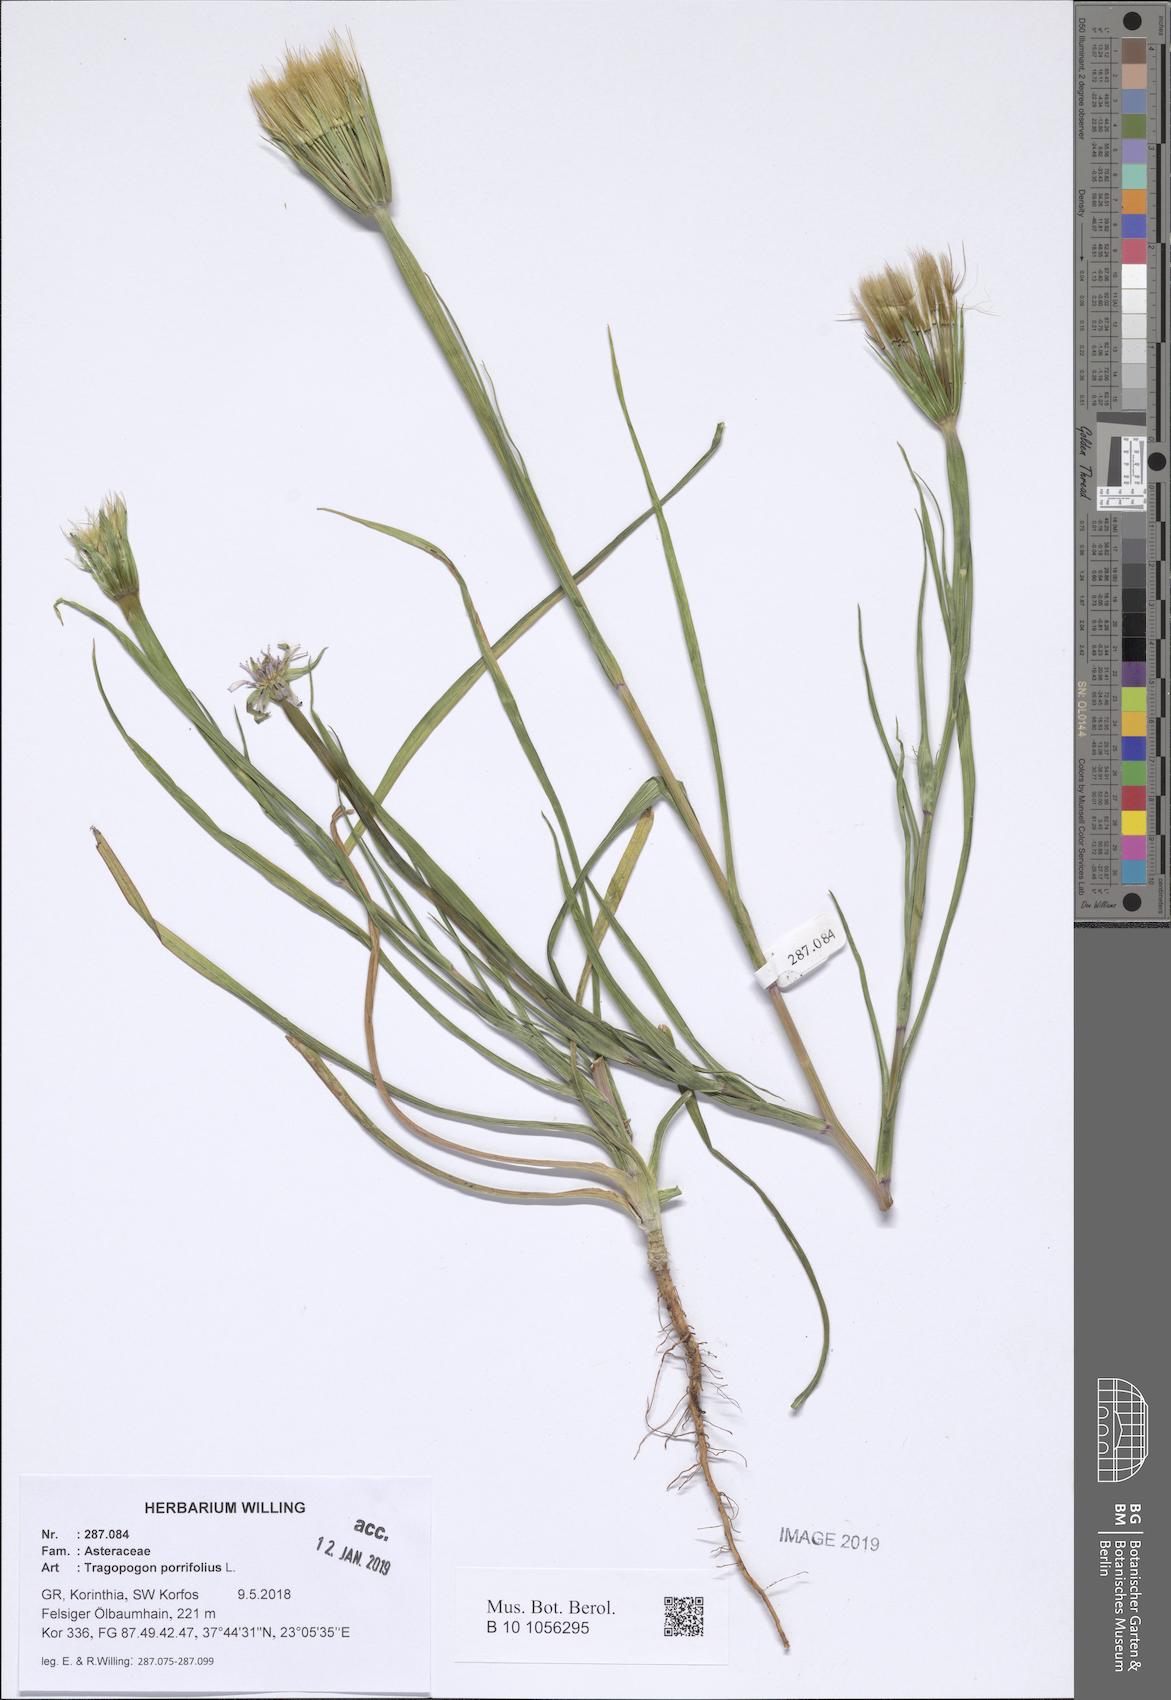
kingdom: Plantae
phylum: Tracheophyta
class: Magnoliopsida
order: Asterales
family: Asteraceae
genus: Tragopogon
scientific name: Tragopogon porrifolius
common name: Salsify
